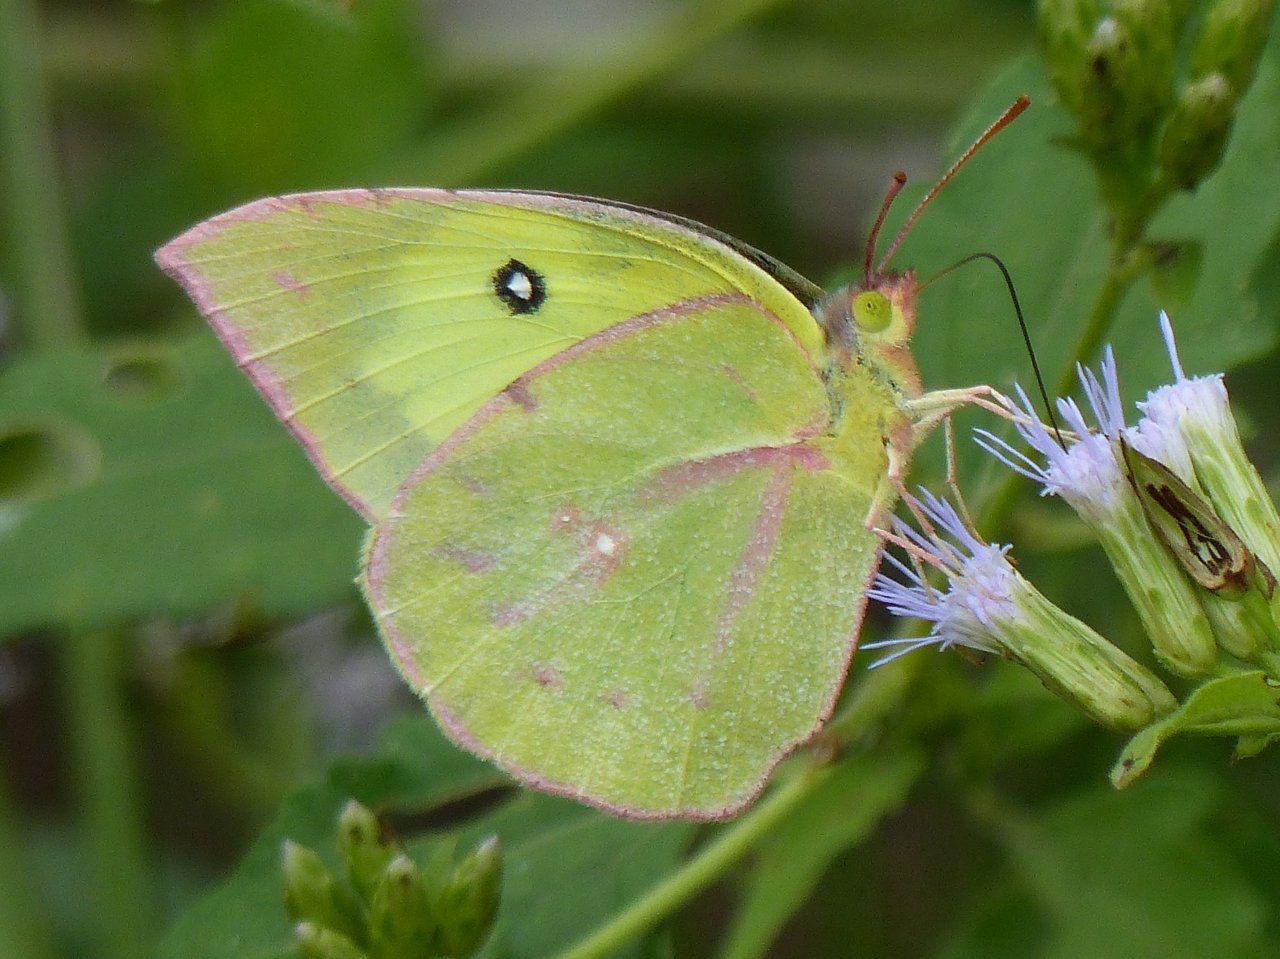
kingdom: Animalia
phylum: Arthropoda
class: Insecta
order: Lepidoptera
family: Pieridae
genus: Zerene
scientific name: Zerene cesonia
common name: Southern Dogface
